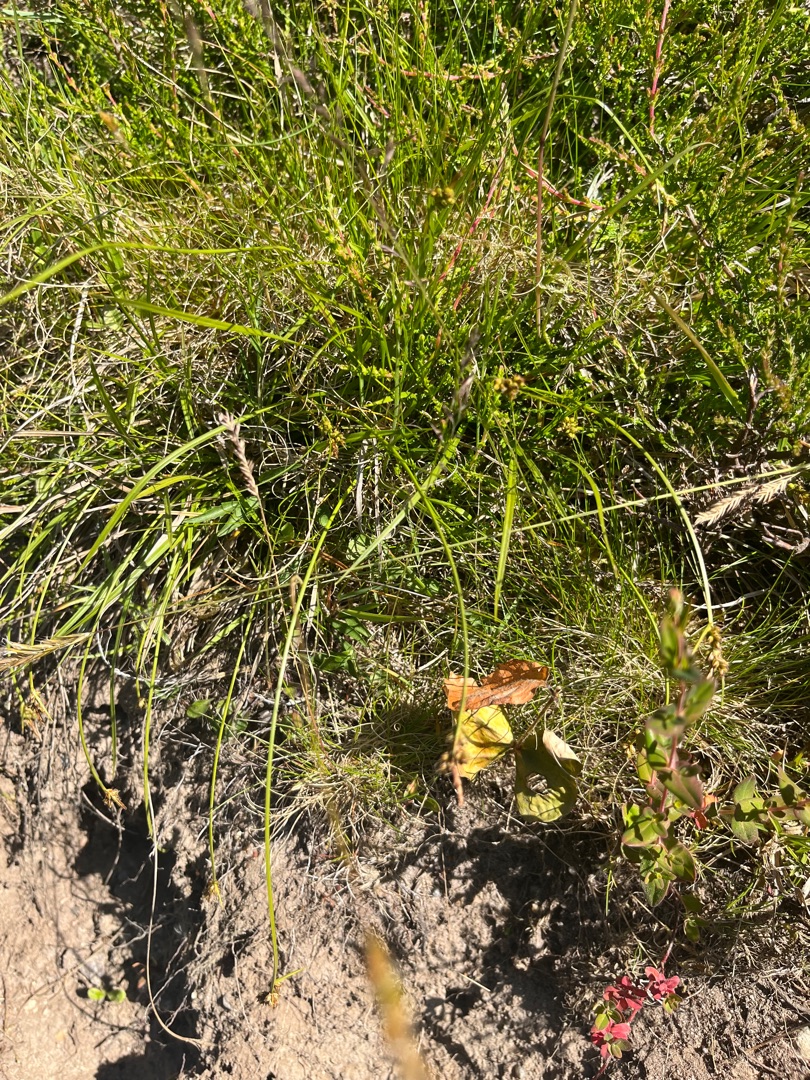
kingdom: Plantae
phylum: Tracheophyta
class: Liliopsida
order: Poales
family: Cyperaceae
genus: Carex
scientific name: Carex pilulifera
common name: Pille-star
